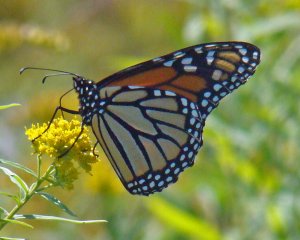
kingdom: Animalia
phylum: Arthropoda
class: Insecta
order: Lepidoptera
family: Nymphalidae
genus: Danaus
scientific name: Danaus plexippus
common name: Monarch
